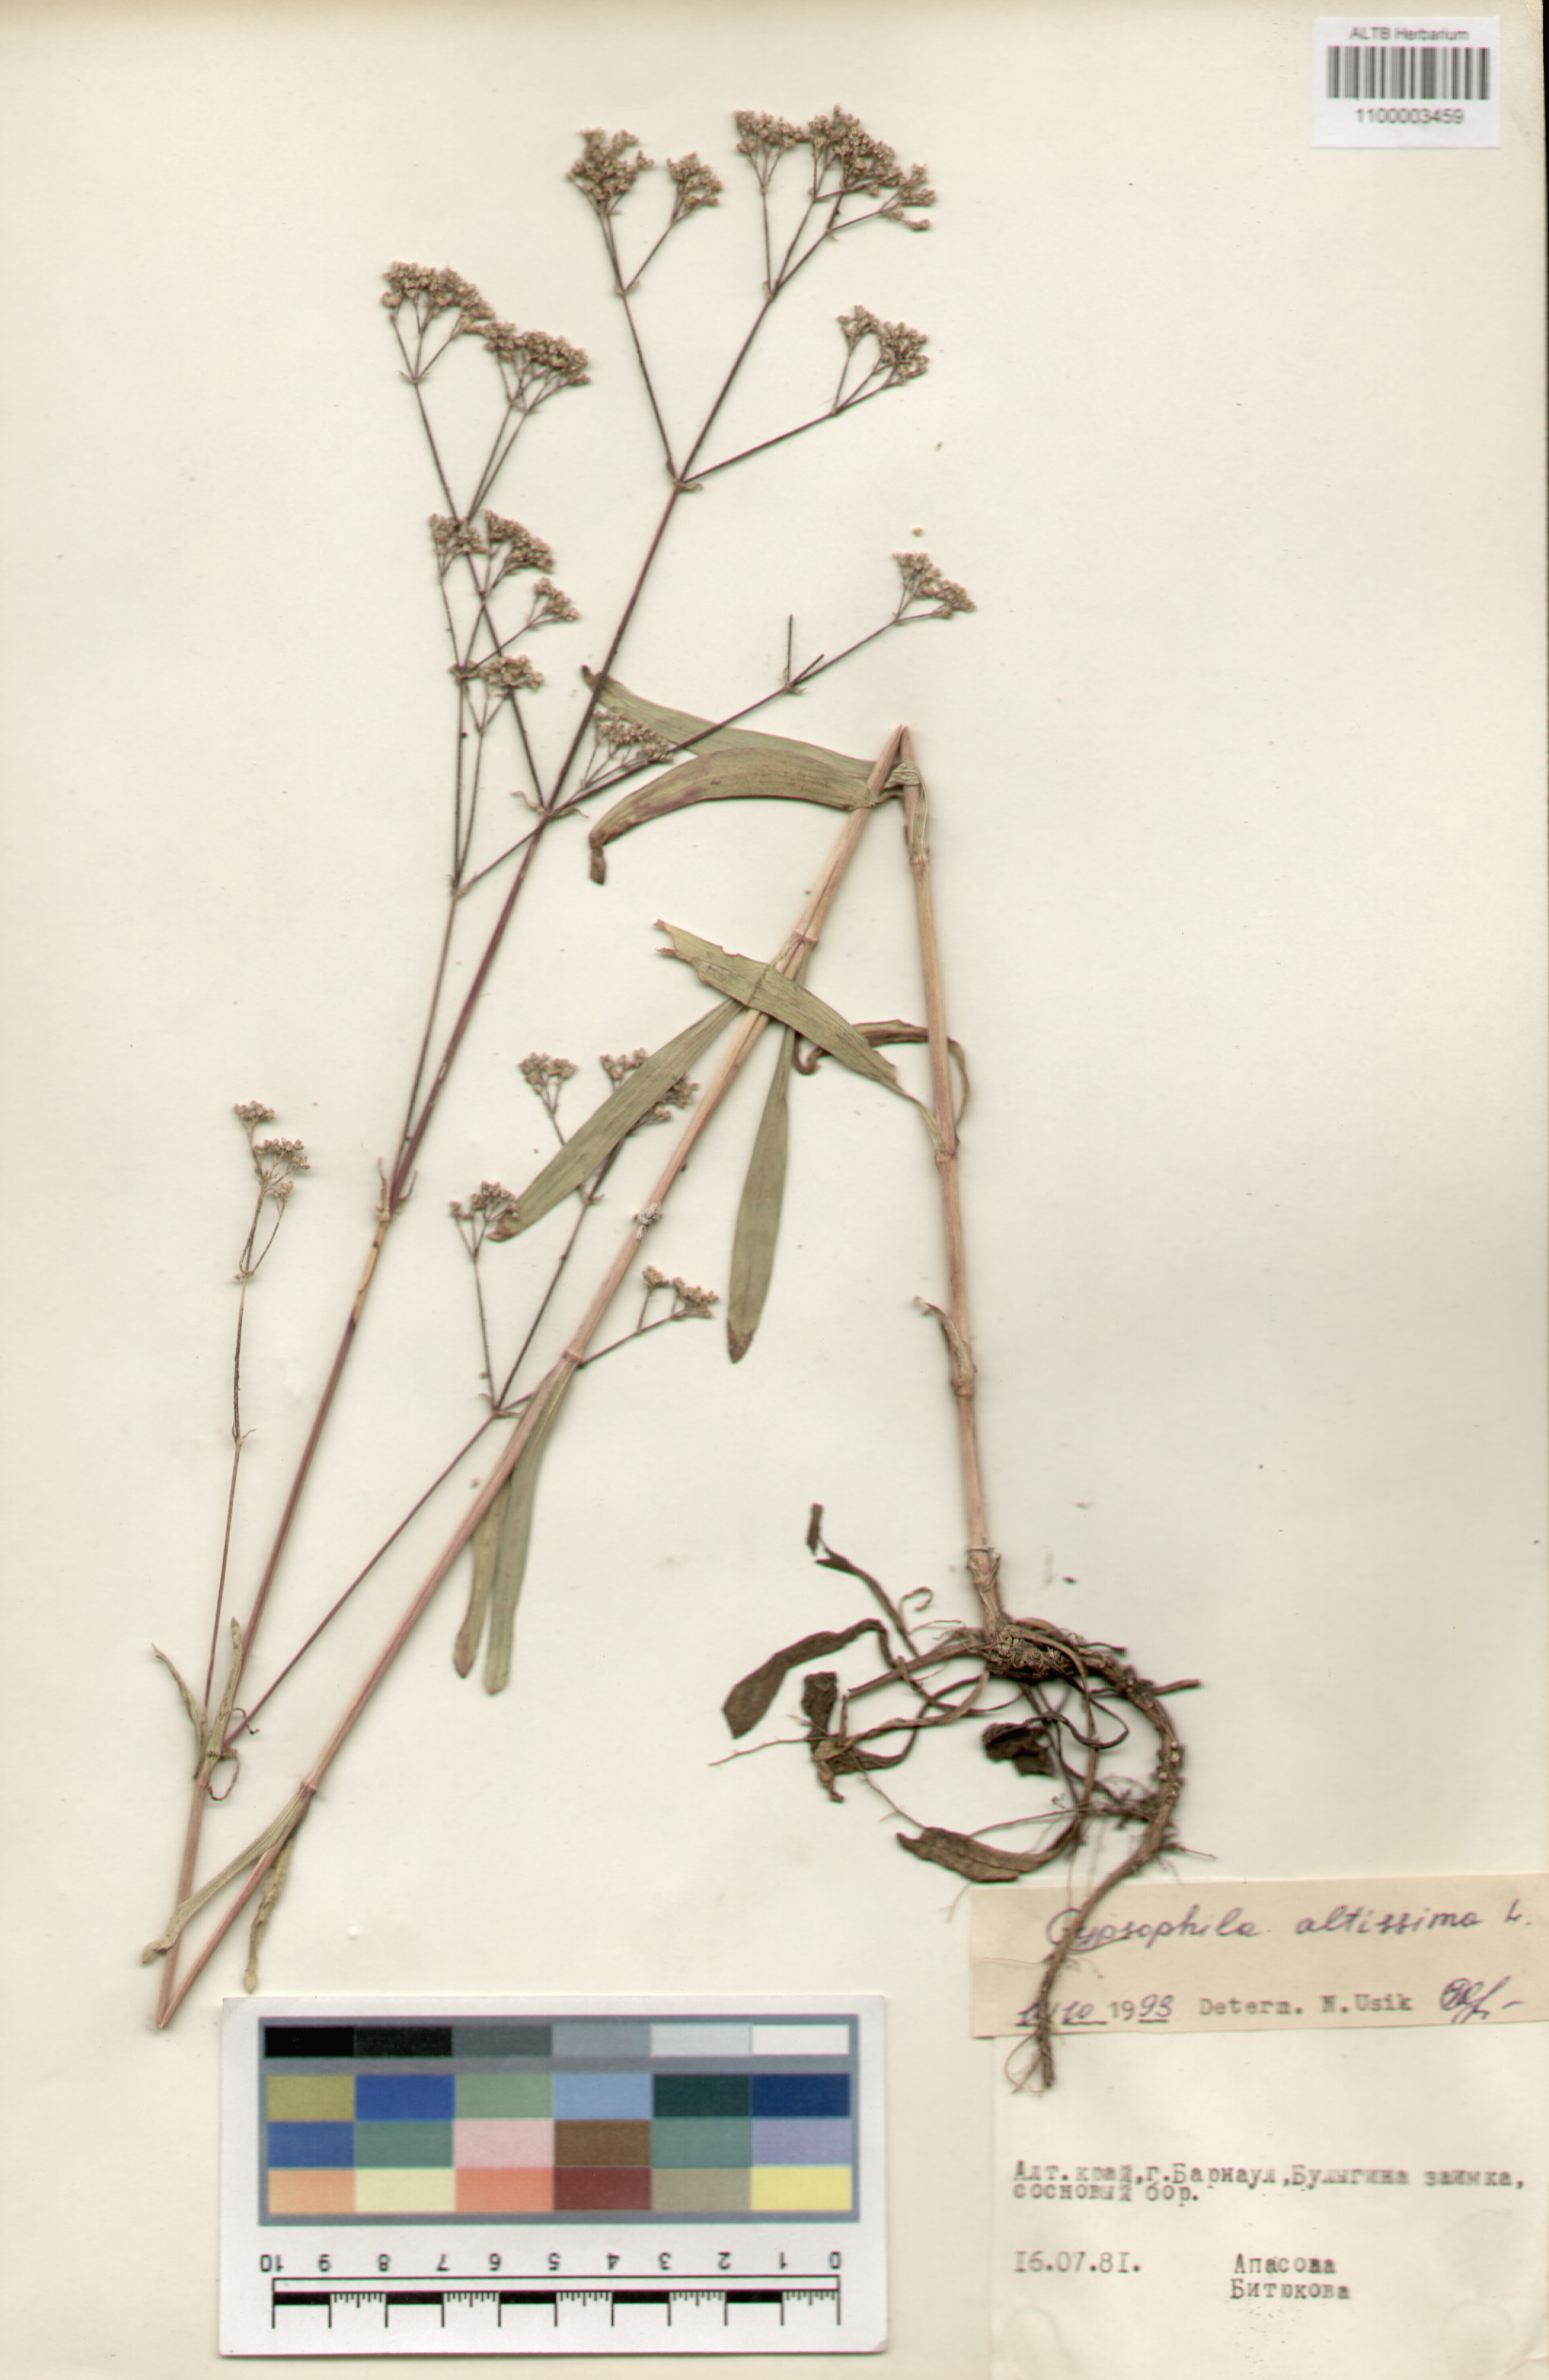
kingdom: Plantae
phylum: Tracheophyta
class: Magnoliopsida
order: Caryophyllales
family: Caryophyllaceae
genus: Gypsophila
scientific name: Gypsophila altissima
